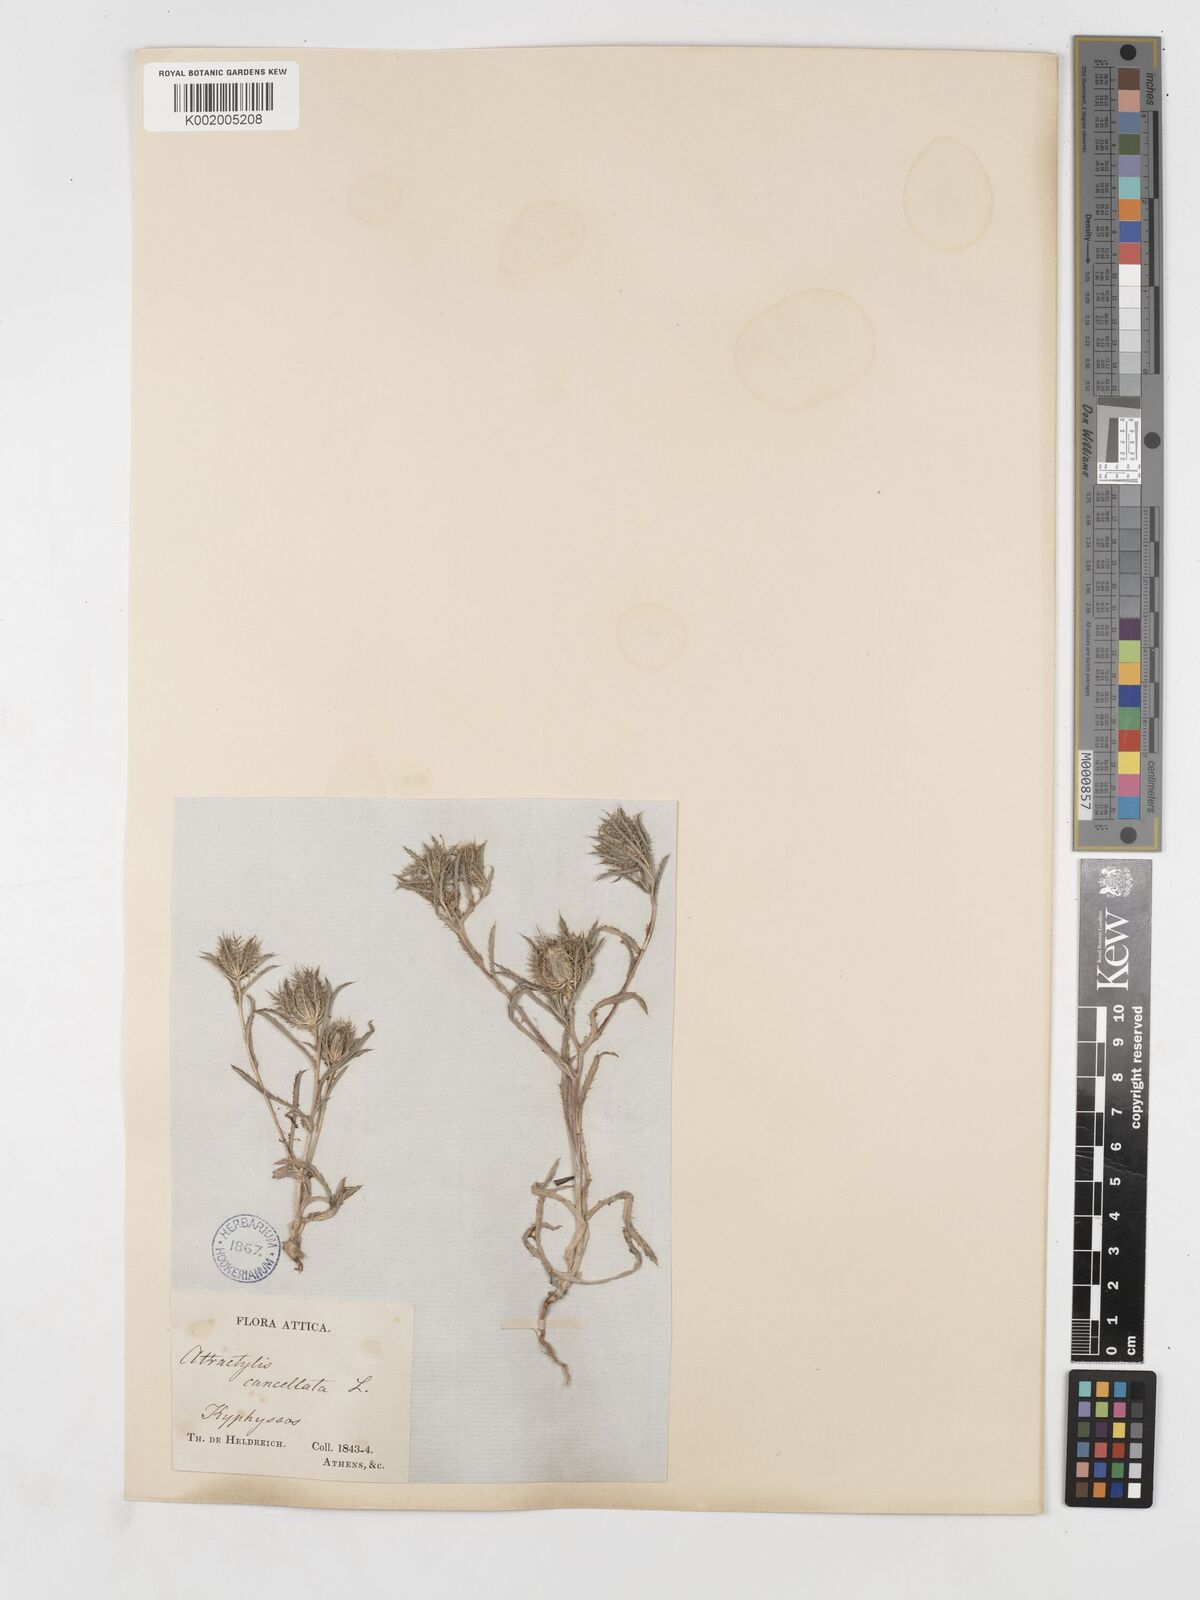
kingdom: Plantae
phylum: Tracheophyta
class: Magnoliopsida
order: Asterales
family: Asteraceae
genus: Atractylis
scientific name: Atractylis cancellata
